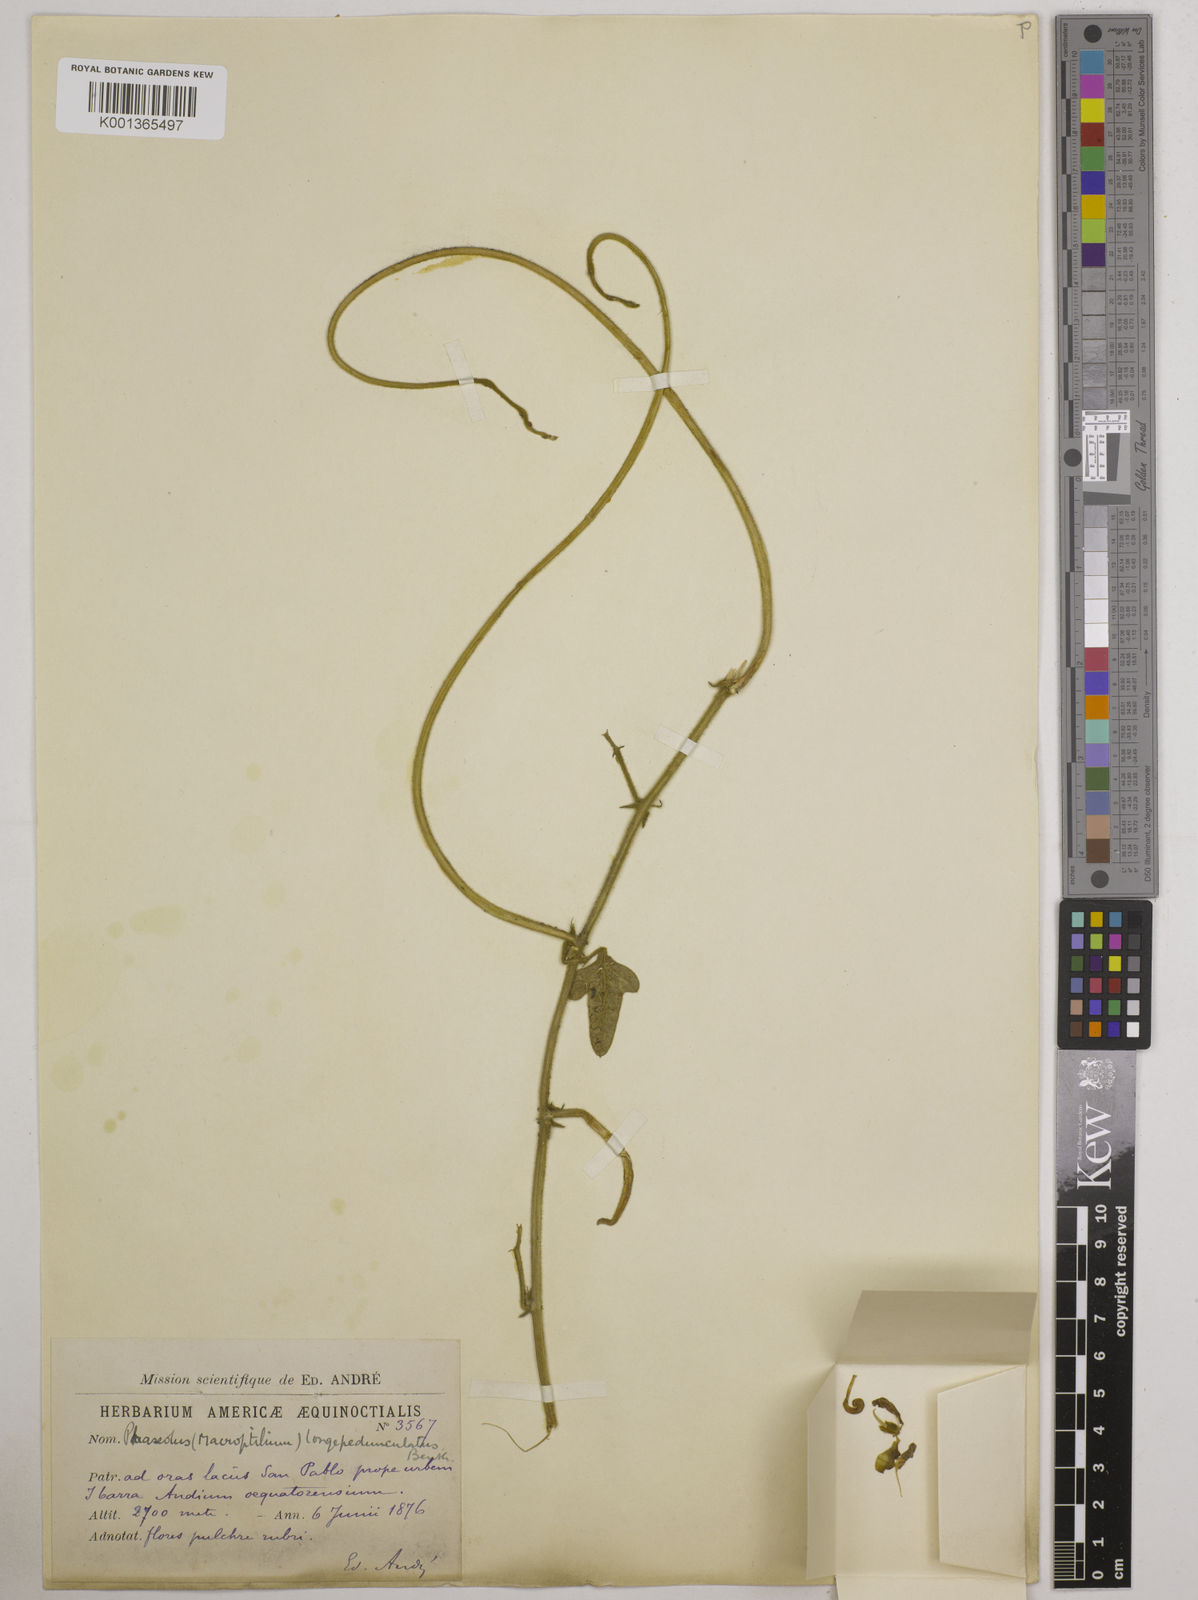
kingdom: Plantae
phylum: Tracheophyta
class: Magnoliopsida
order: Fabales
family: Fabaceae
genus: Macroptilium
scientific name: Macroptilium atropurpureum
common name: Purple bushbean
